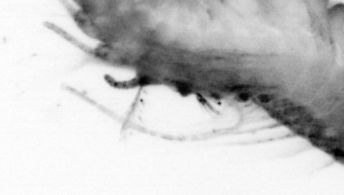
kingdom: Animalia
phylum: Annelida
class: Polychaeta
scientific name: Polychaeta
